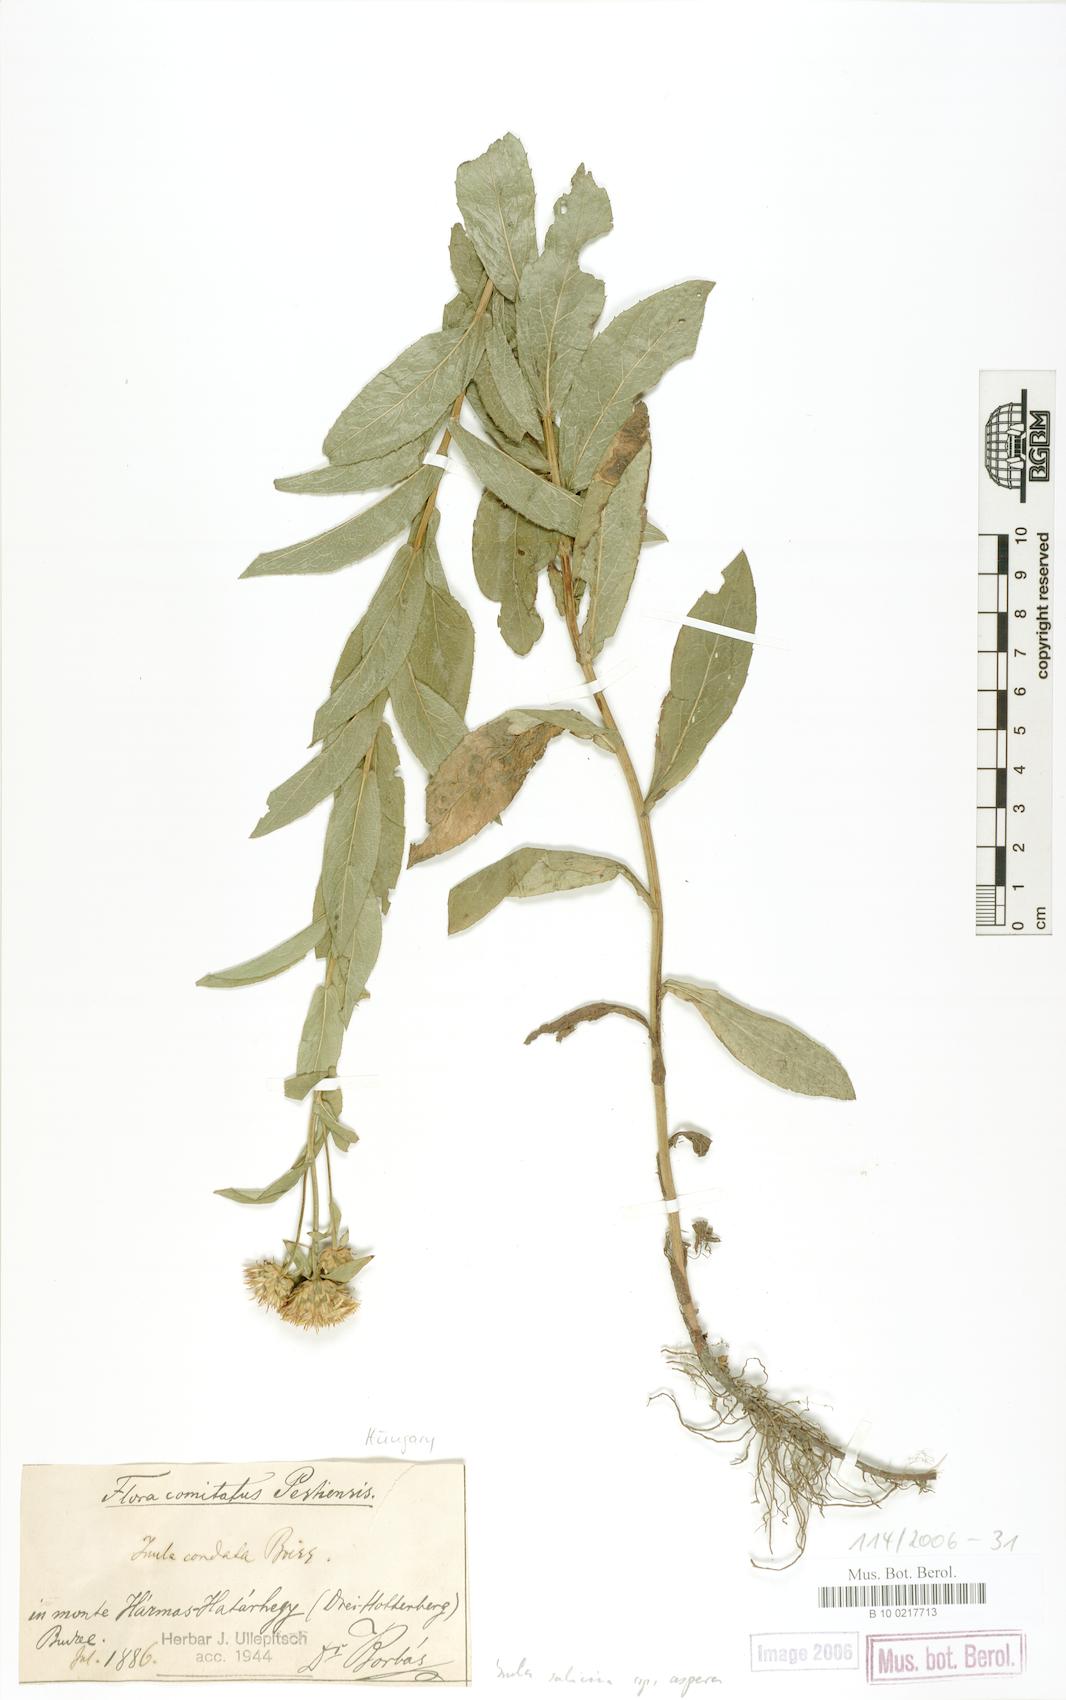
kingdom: Plantae
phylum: Tracheophyta
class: Magnoliopsida
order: Asterales
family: Asteraceae
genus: Pentanema
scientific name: Pentanema salicinum
